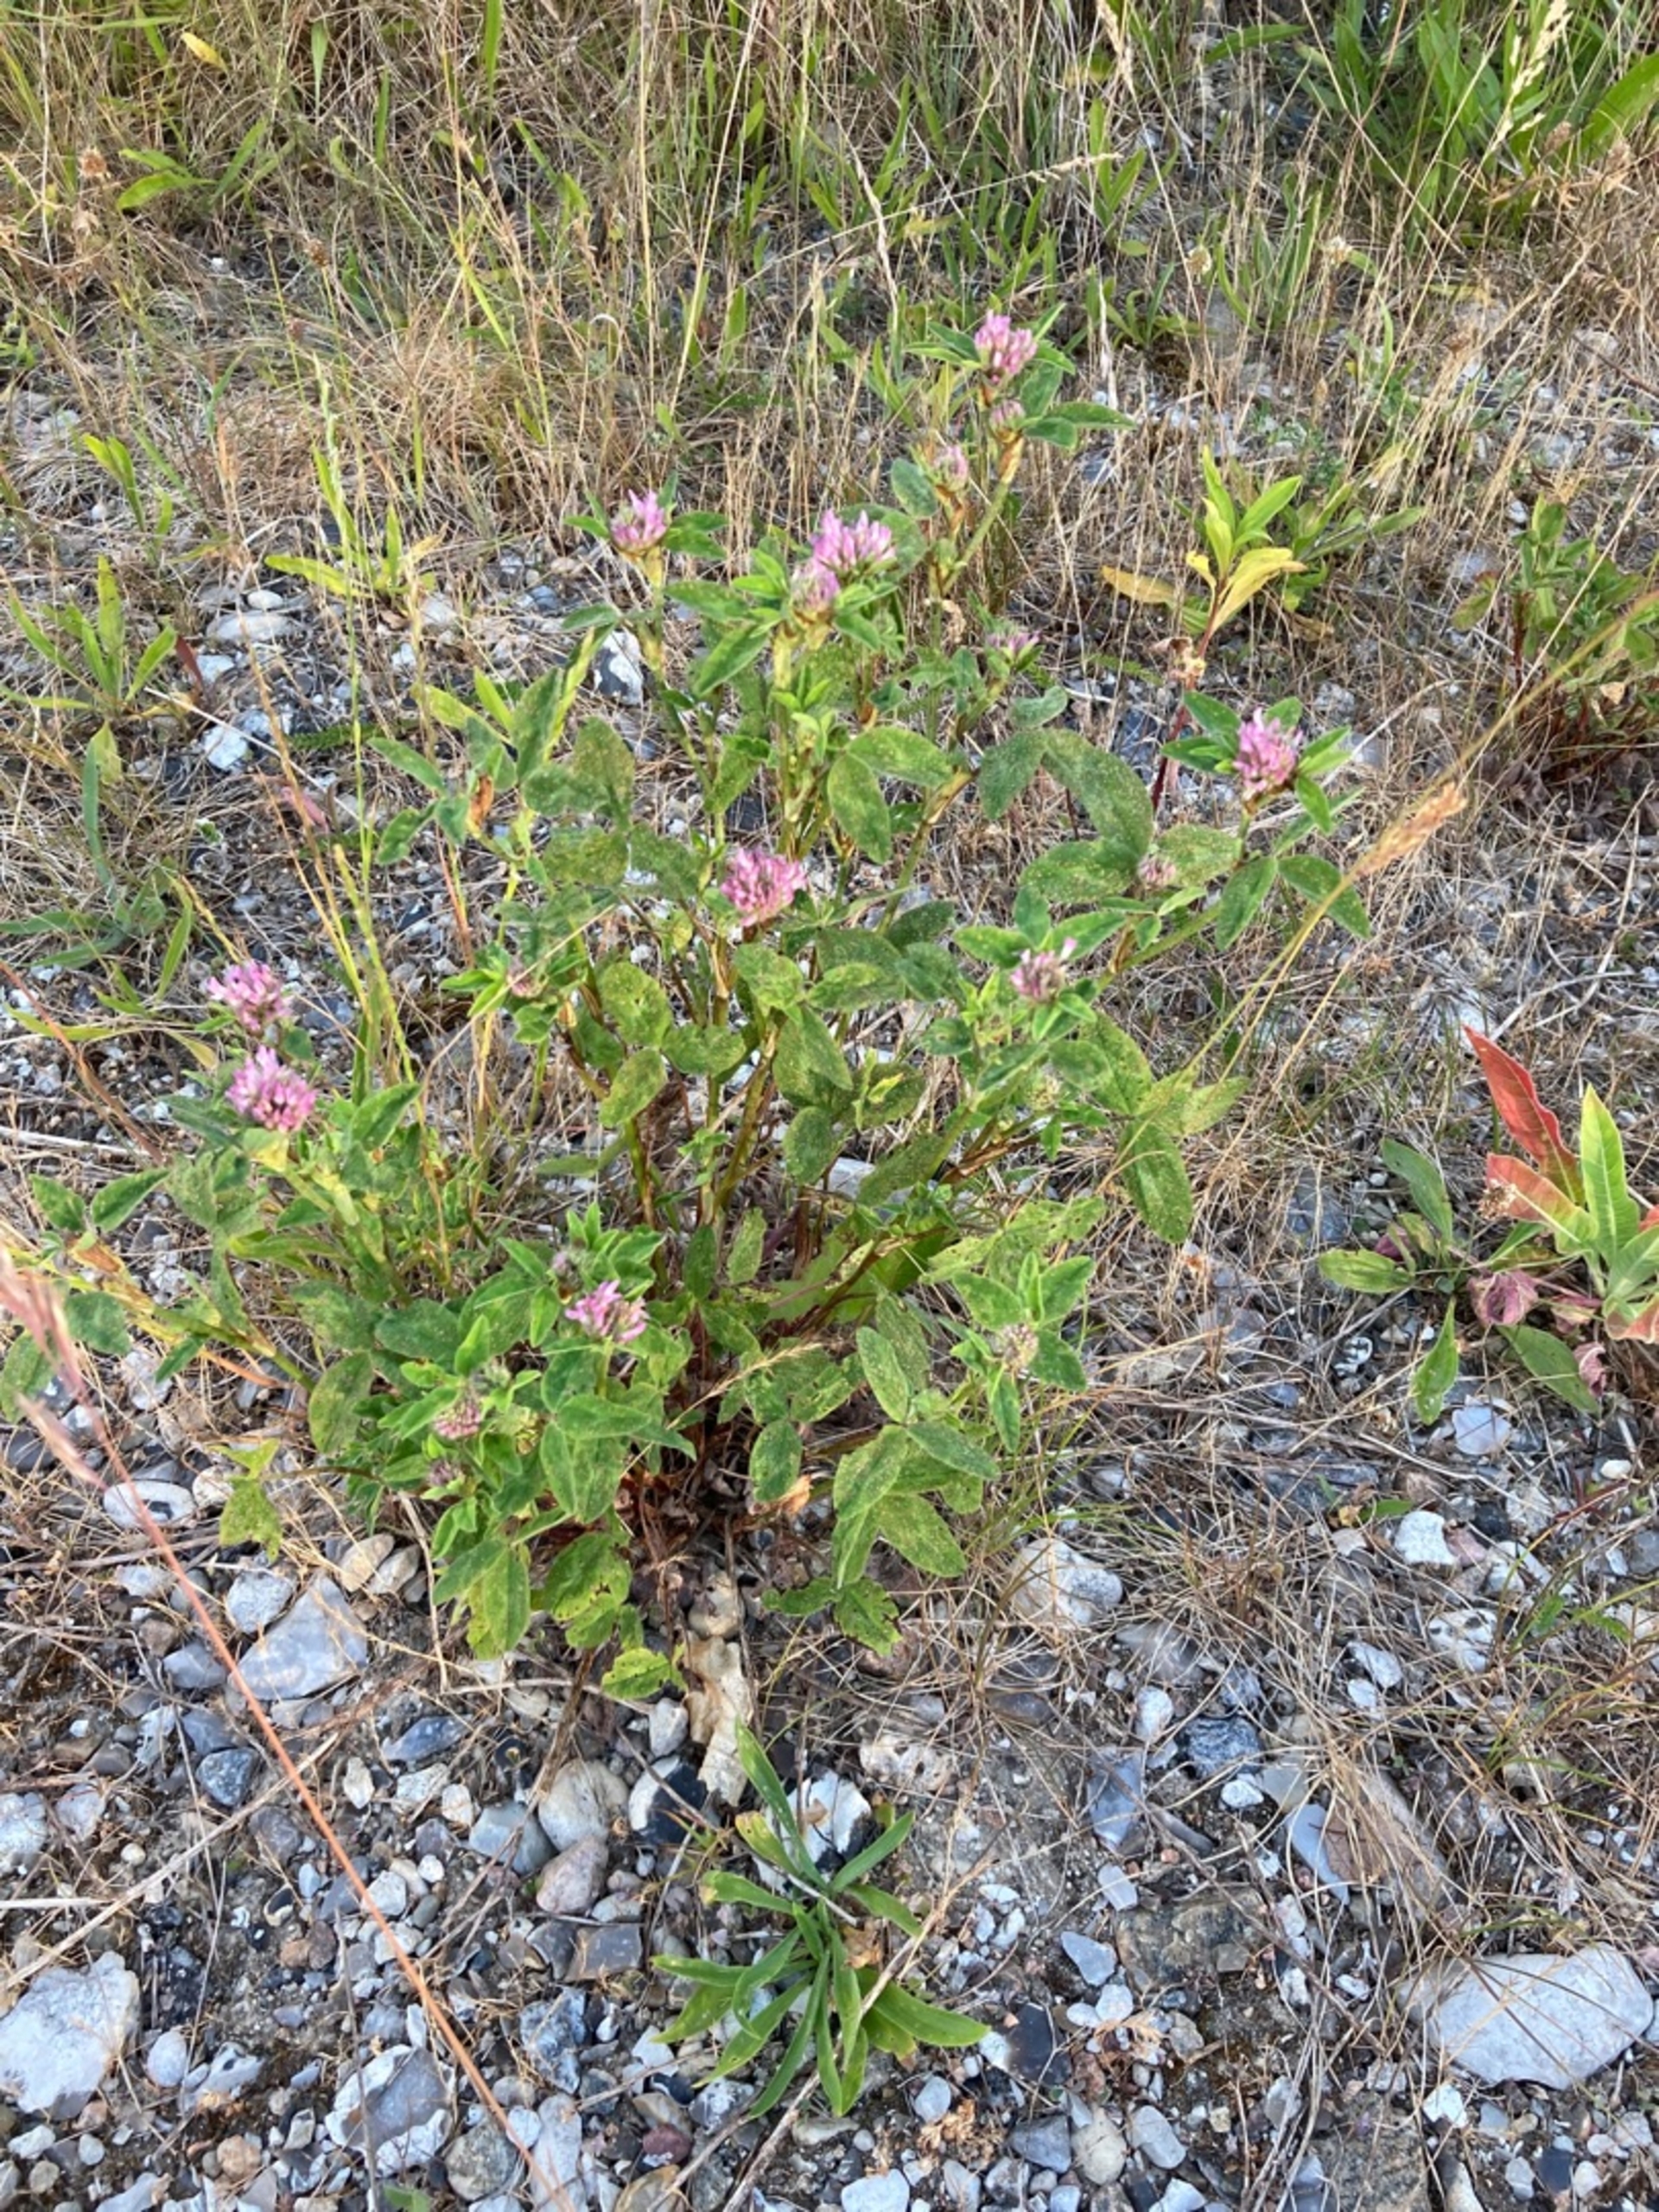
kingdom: Plantae
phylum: Tracheophyta
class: Magnoliopsida
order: Fabales
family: Fabaceae
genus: Trifolium
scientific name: Trifolium pratense
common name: Rød-kløver
